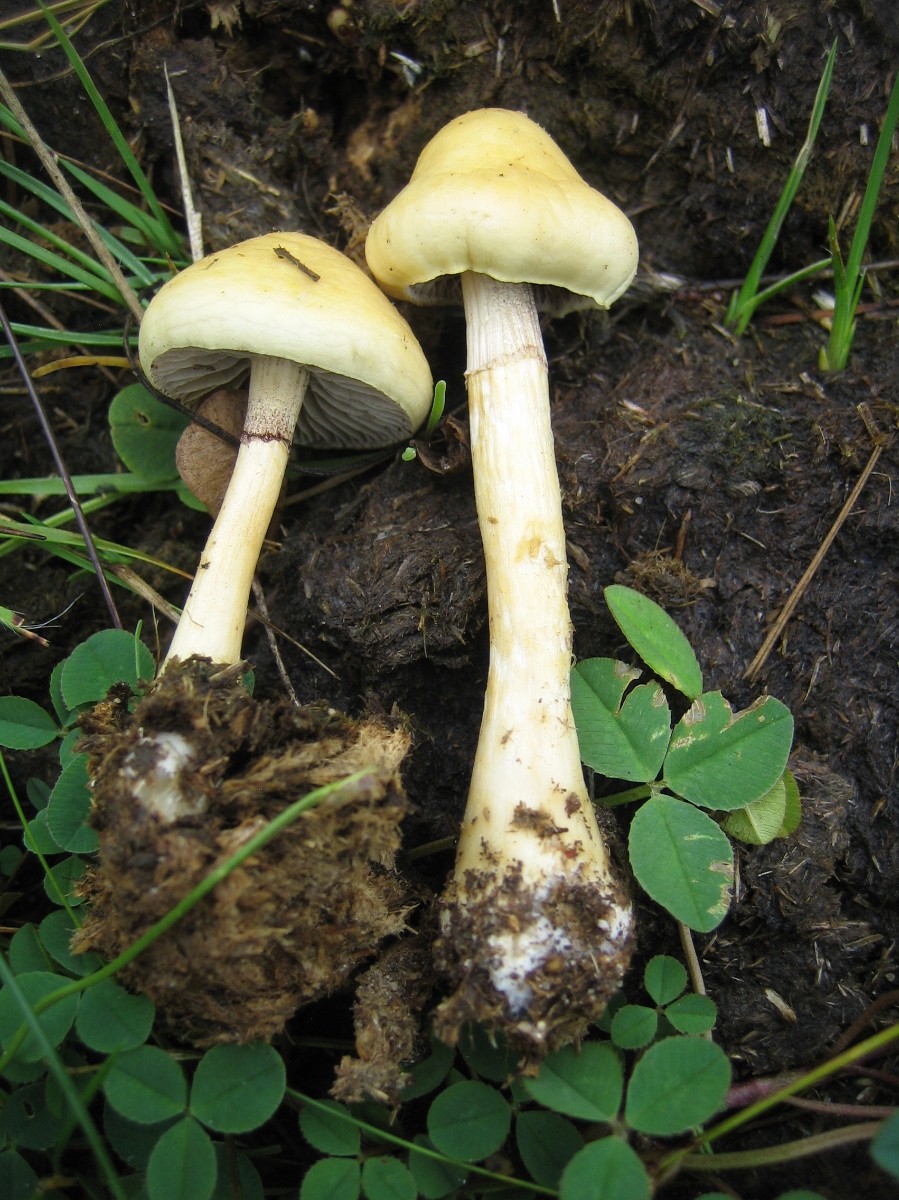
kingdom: Fungi
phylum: Basidiomycota
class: Agaricomycetes
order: Agaricales
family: Strophariaceae
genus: Protostropharia
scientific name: Protostropharia semiglobata
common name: halvkugleformet bredblad
